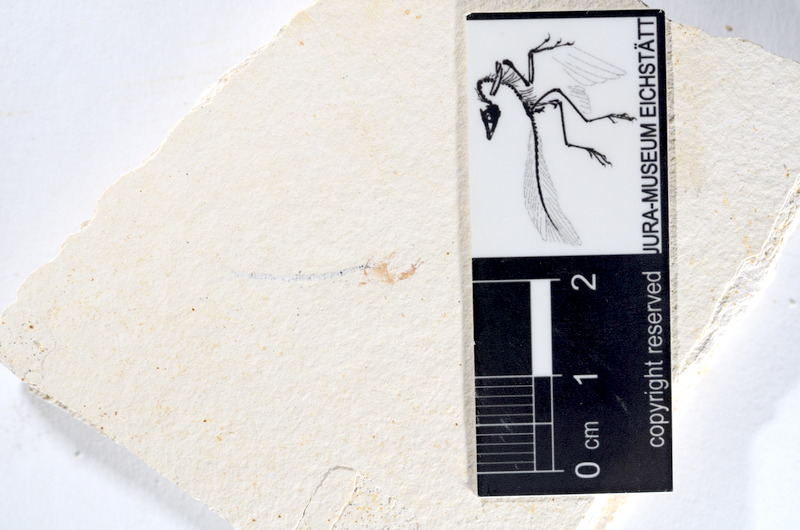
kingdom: Animalia
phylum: Chordata
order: Salmoniformes
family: Orthogonikleithridae
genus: Orthogonikleithrus
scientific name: Orthogonikleithrus hoelli
